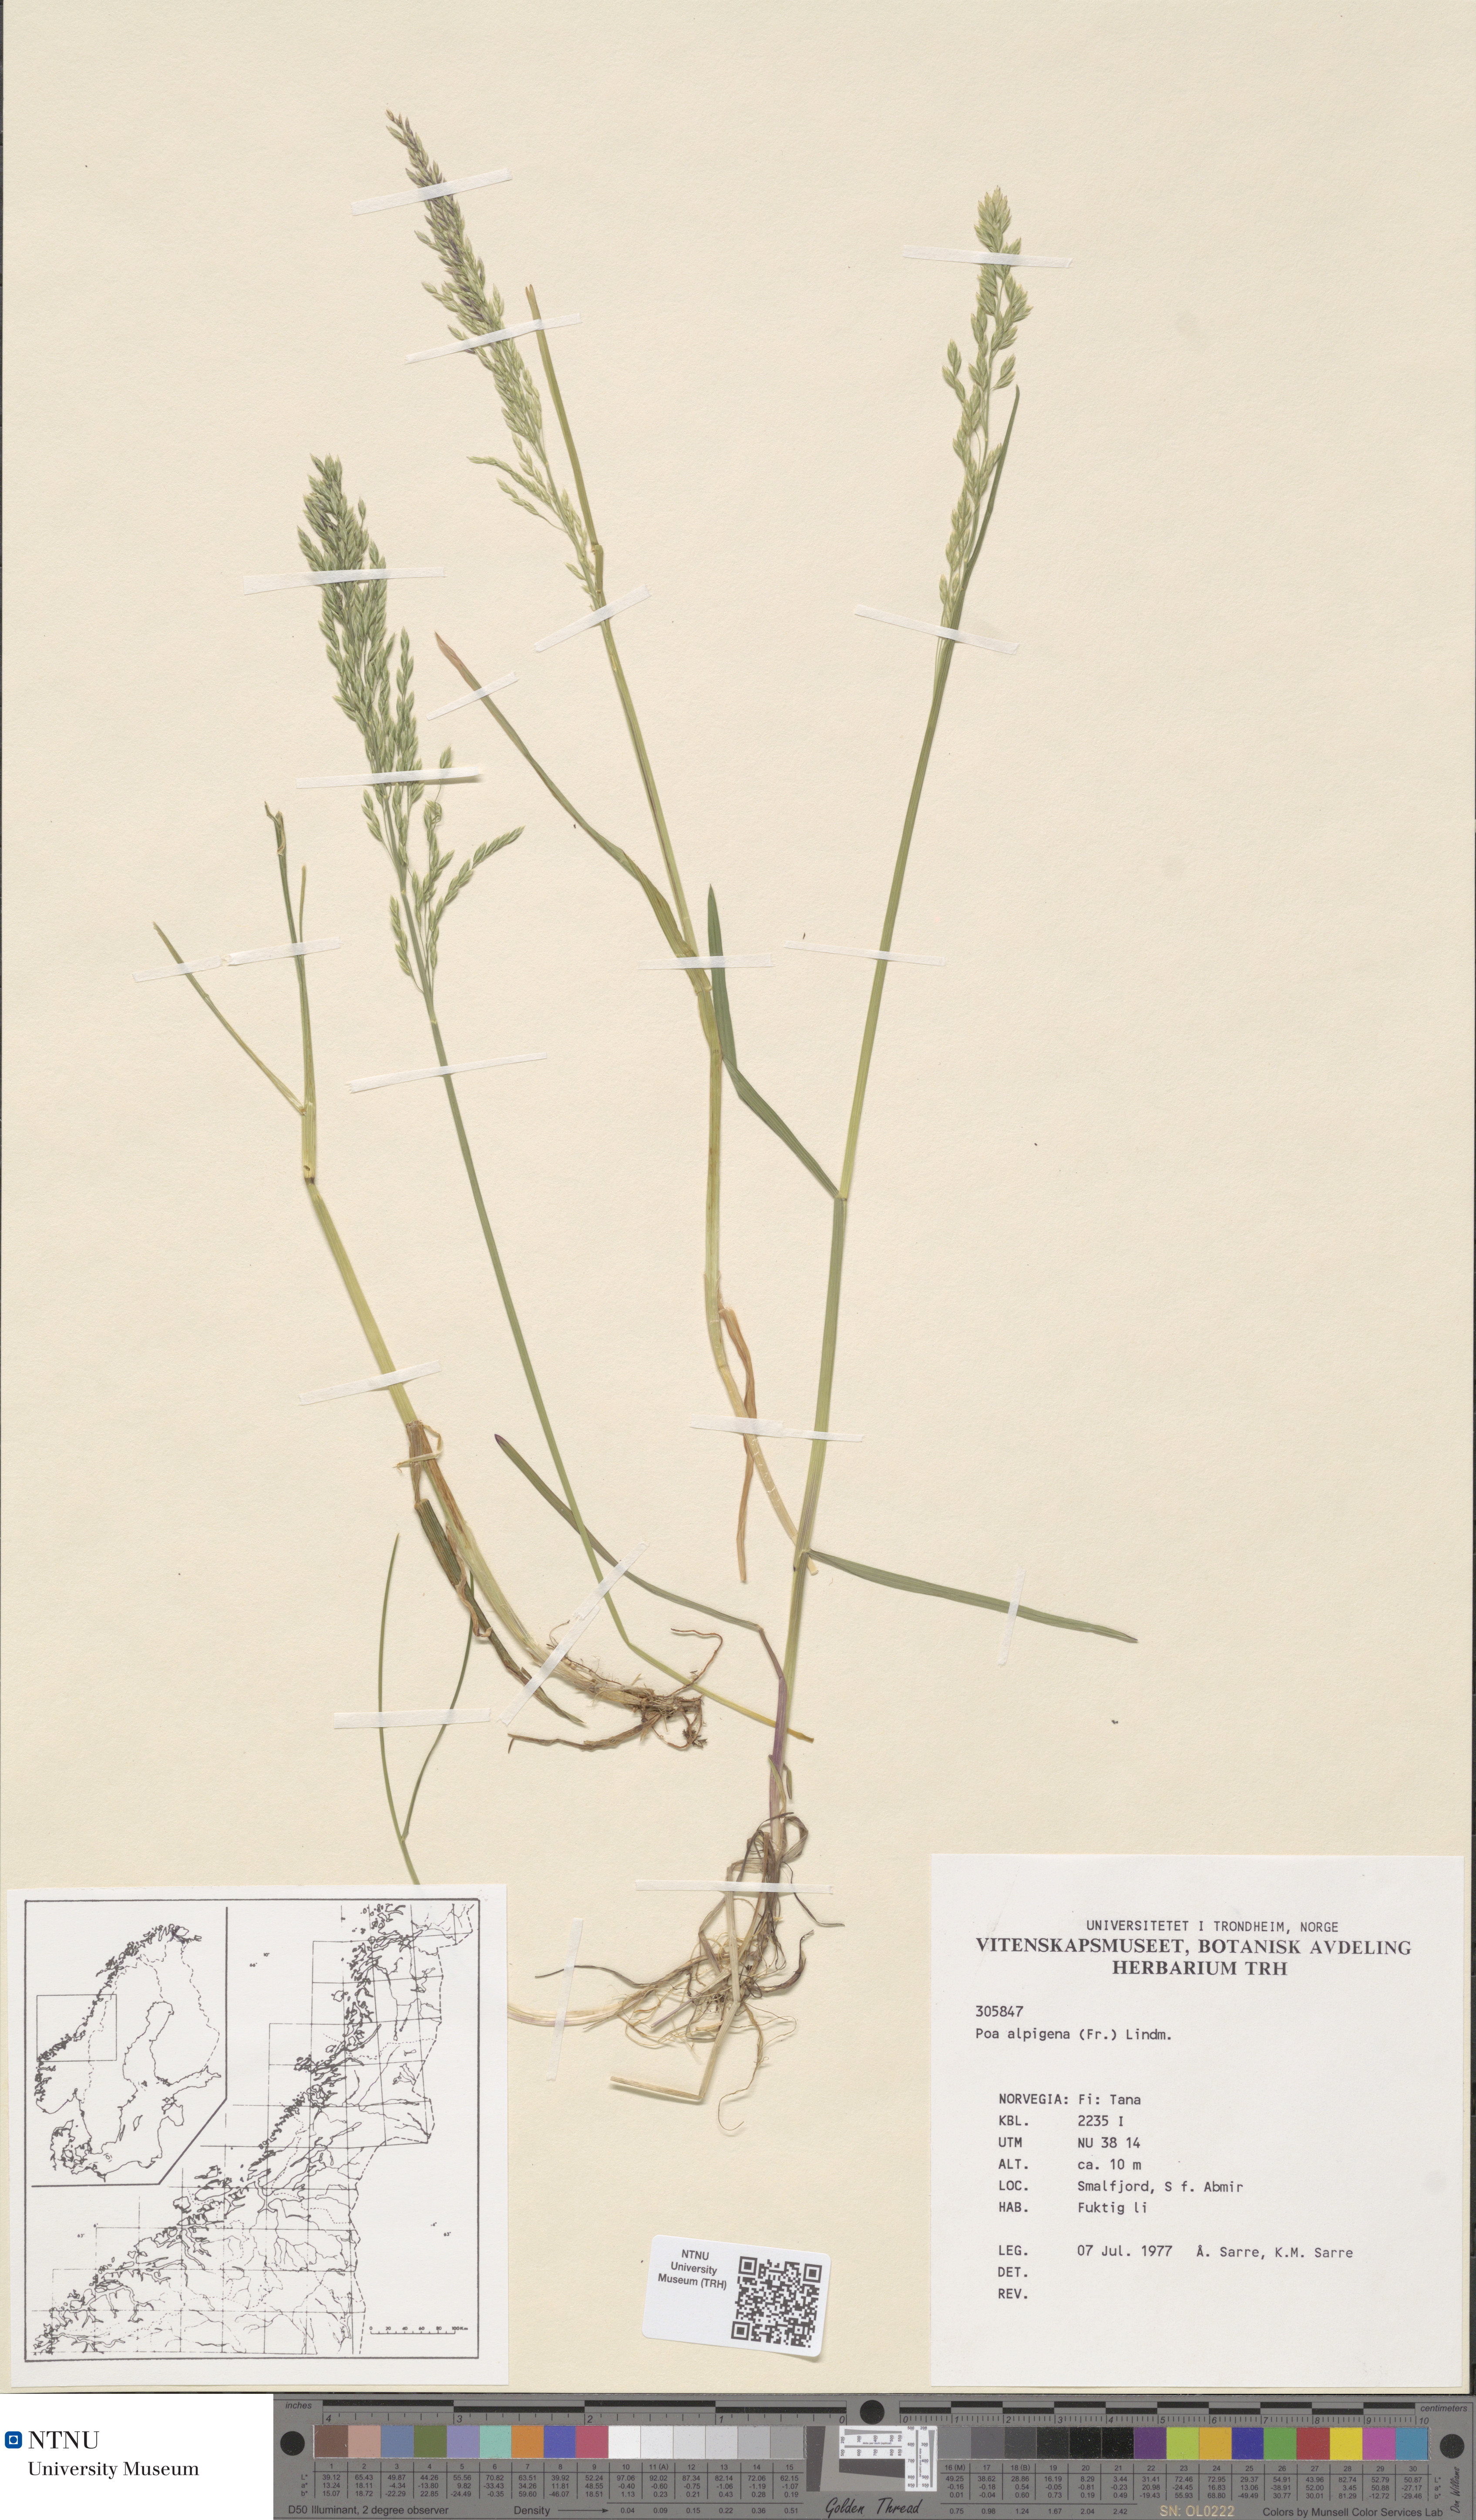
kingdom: Plantae
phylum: Tracheophyta
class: Liliopsida
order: Poales
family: Poaceae
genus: Poa
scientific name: Poa alpigena
